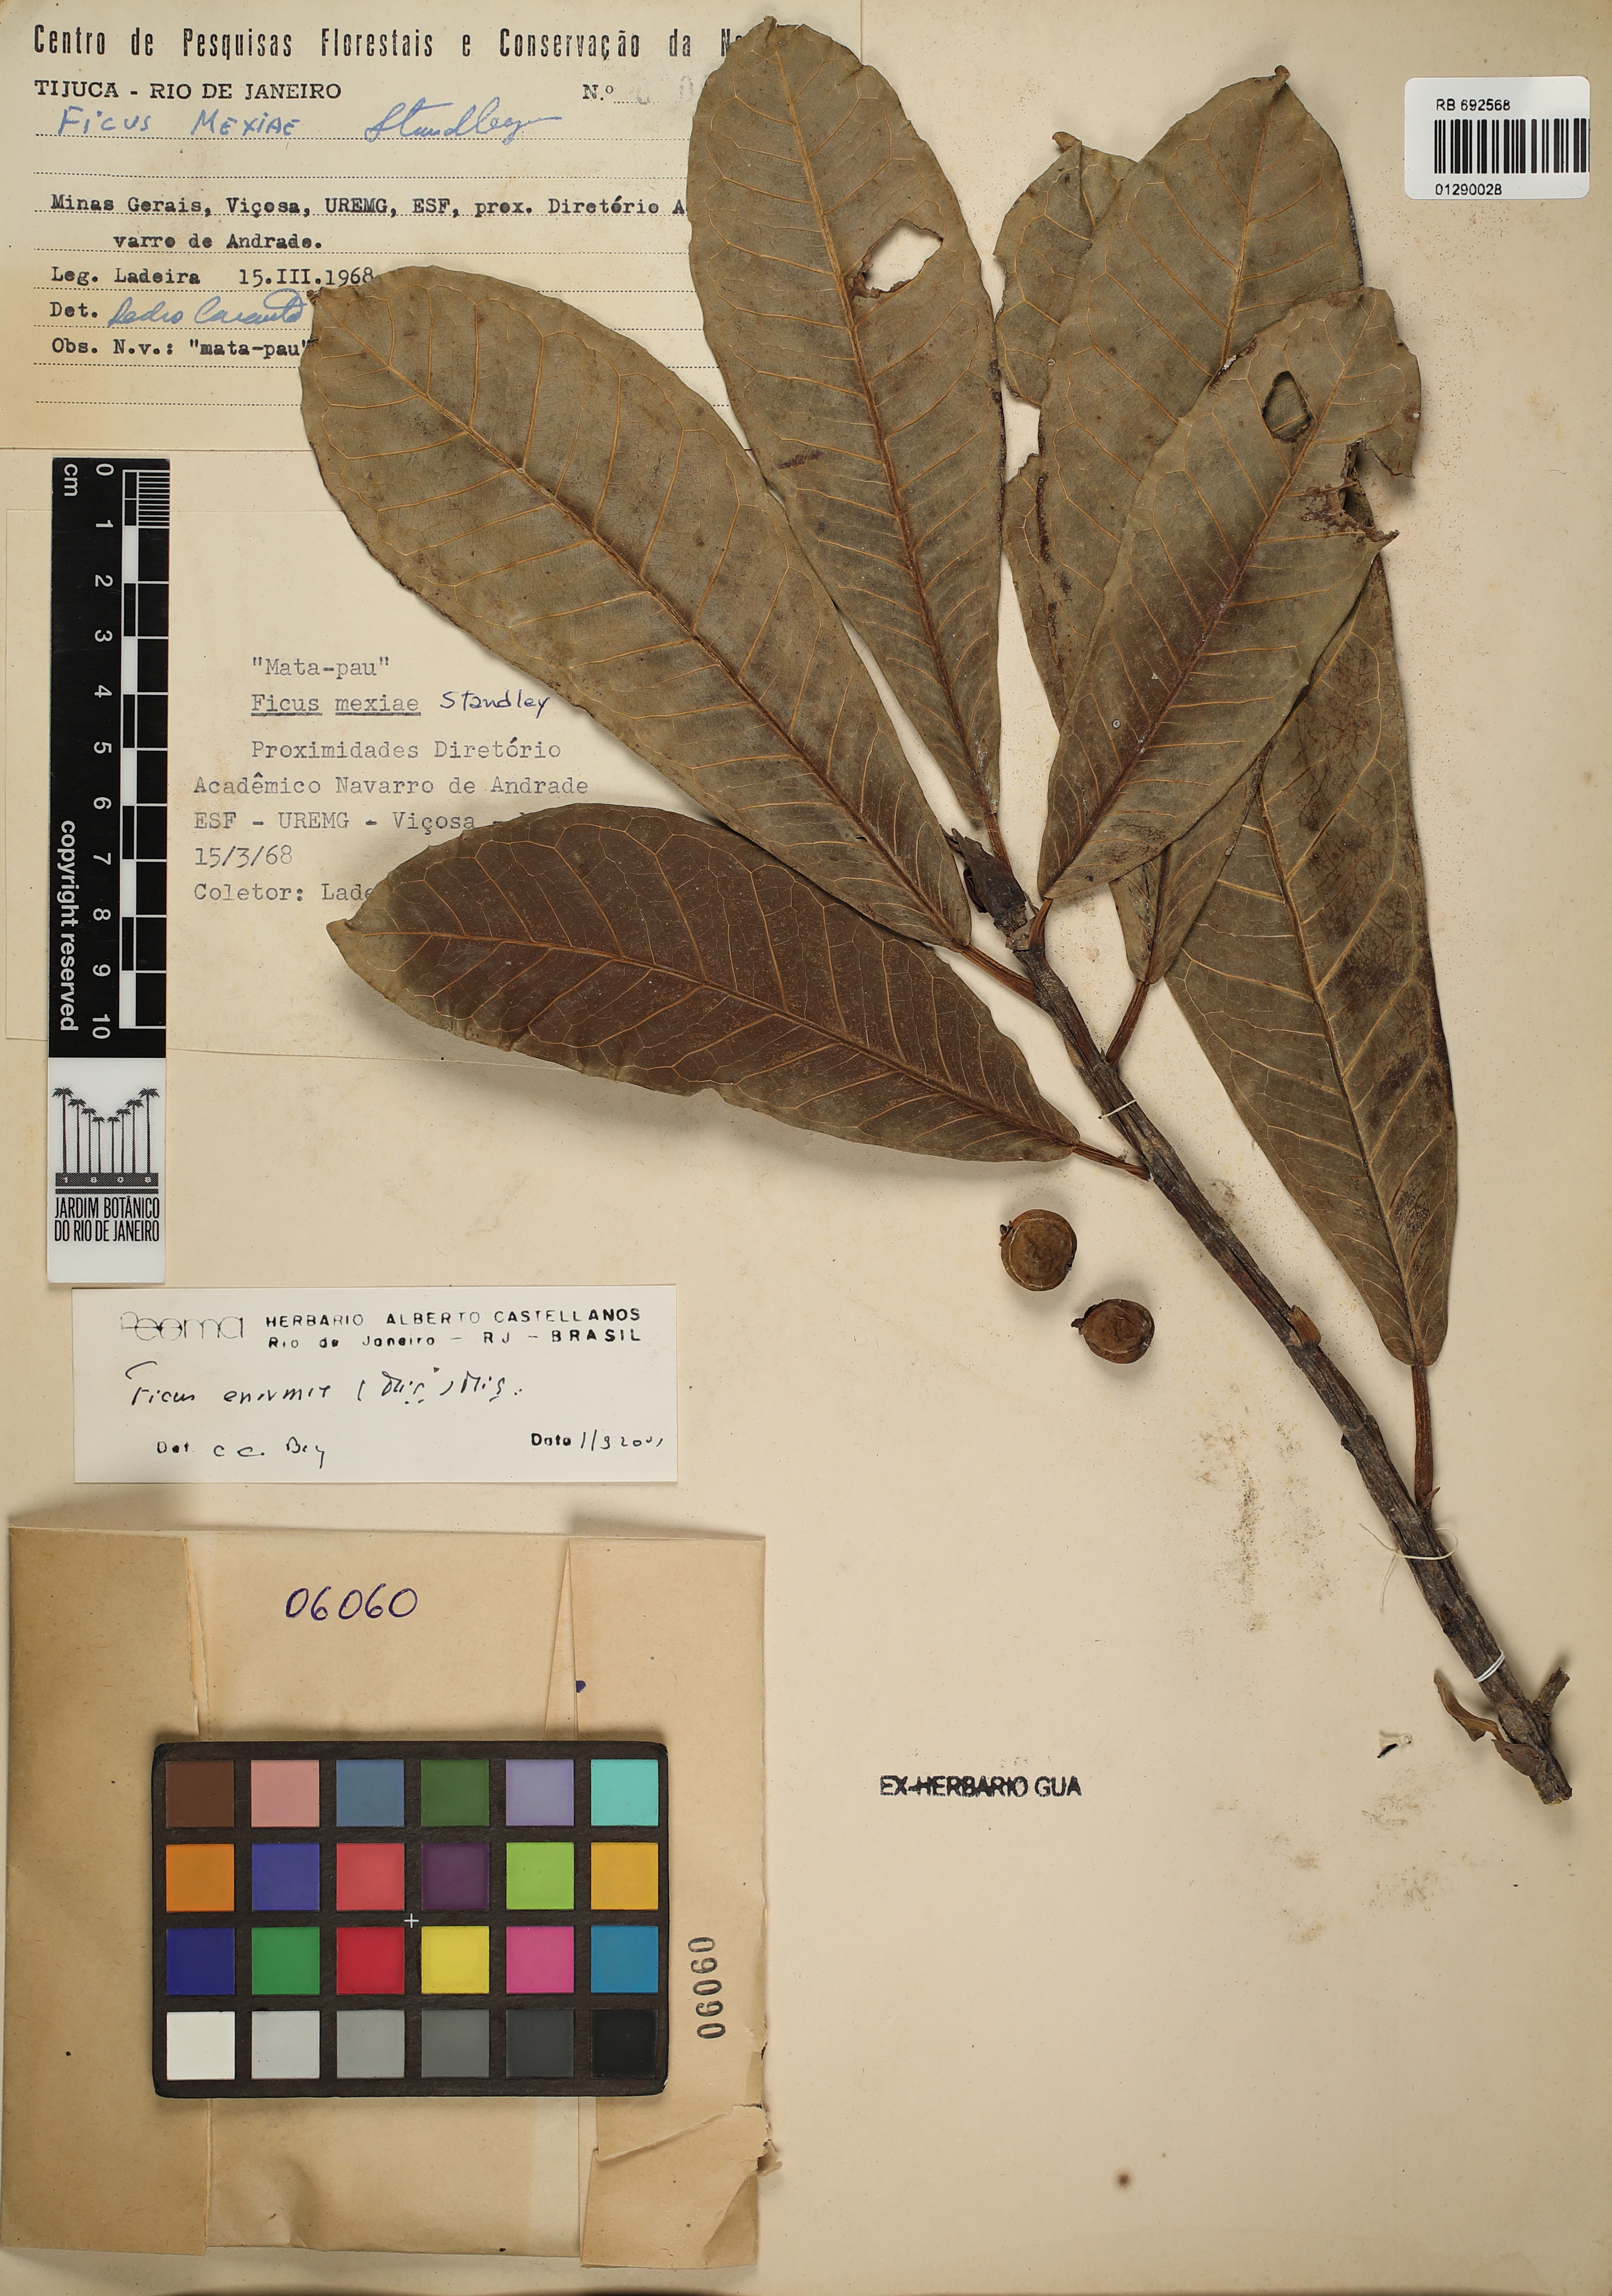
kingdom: Plantae
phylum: Tracheophyta
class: Magnoliopsida
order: Rosales
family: Moraceae
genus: Ficus
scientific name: Ficus enormis
